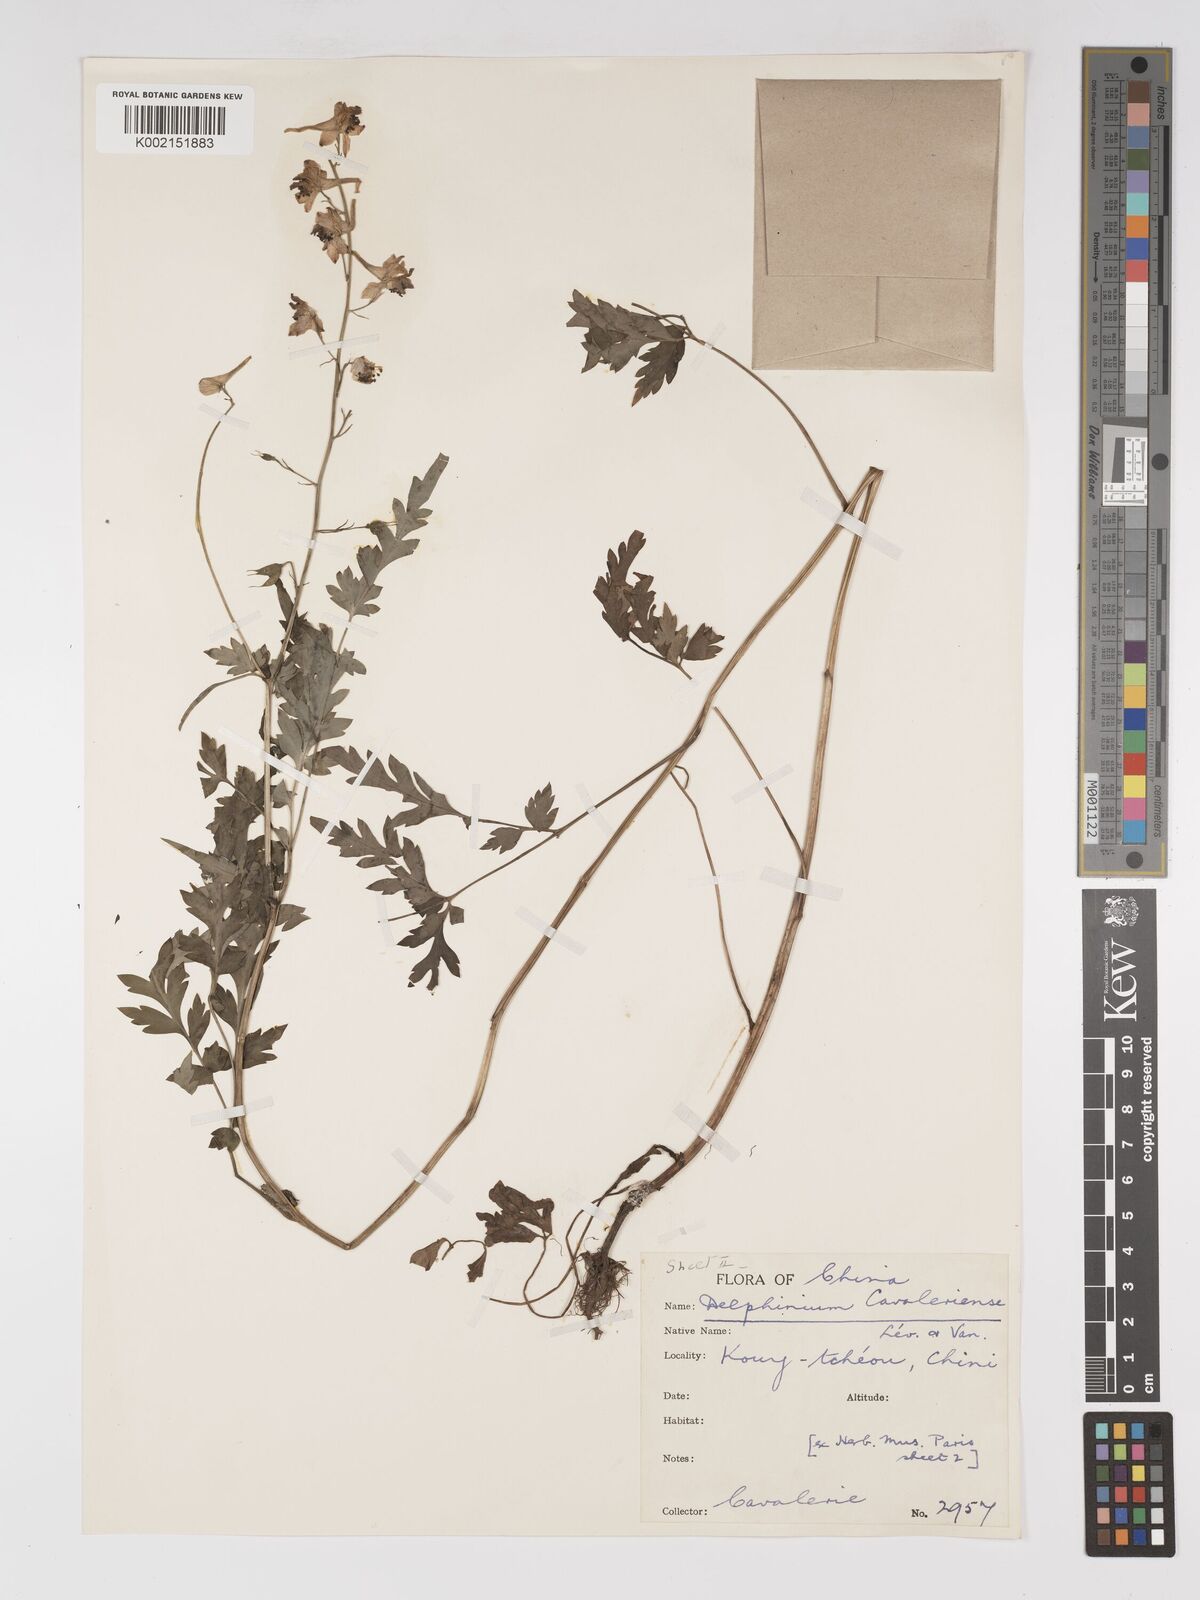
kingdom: Plantae
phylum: Tracheophyta
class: Magnoliopsida
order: Ranunculales
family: Ranunculaceae
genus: Delphinium
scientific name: Delphinium anthriscifolium
